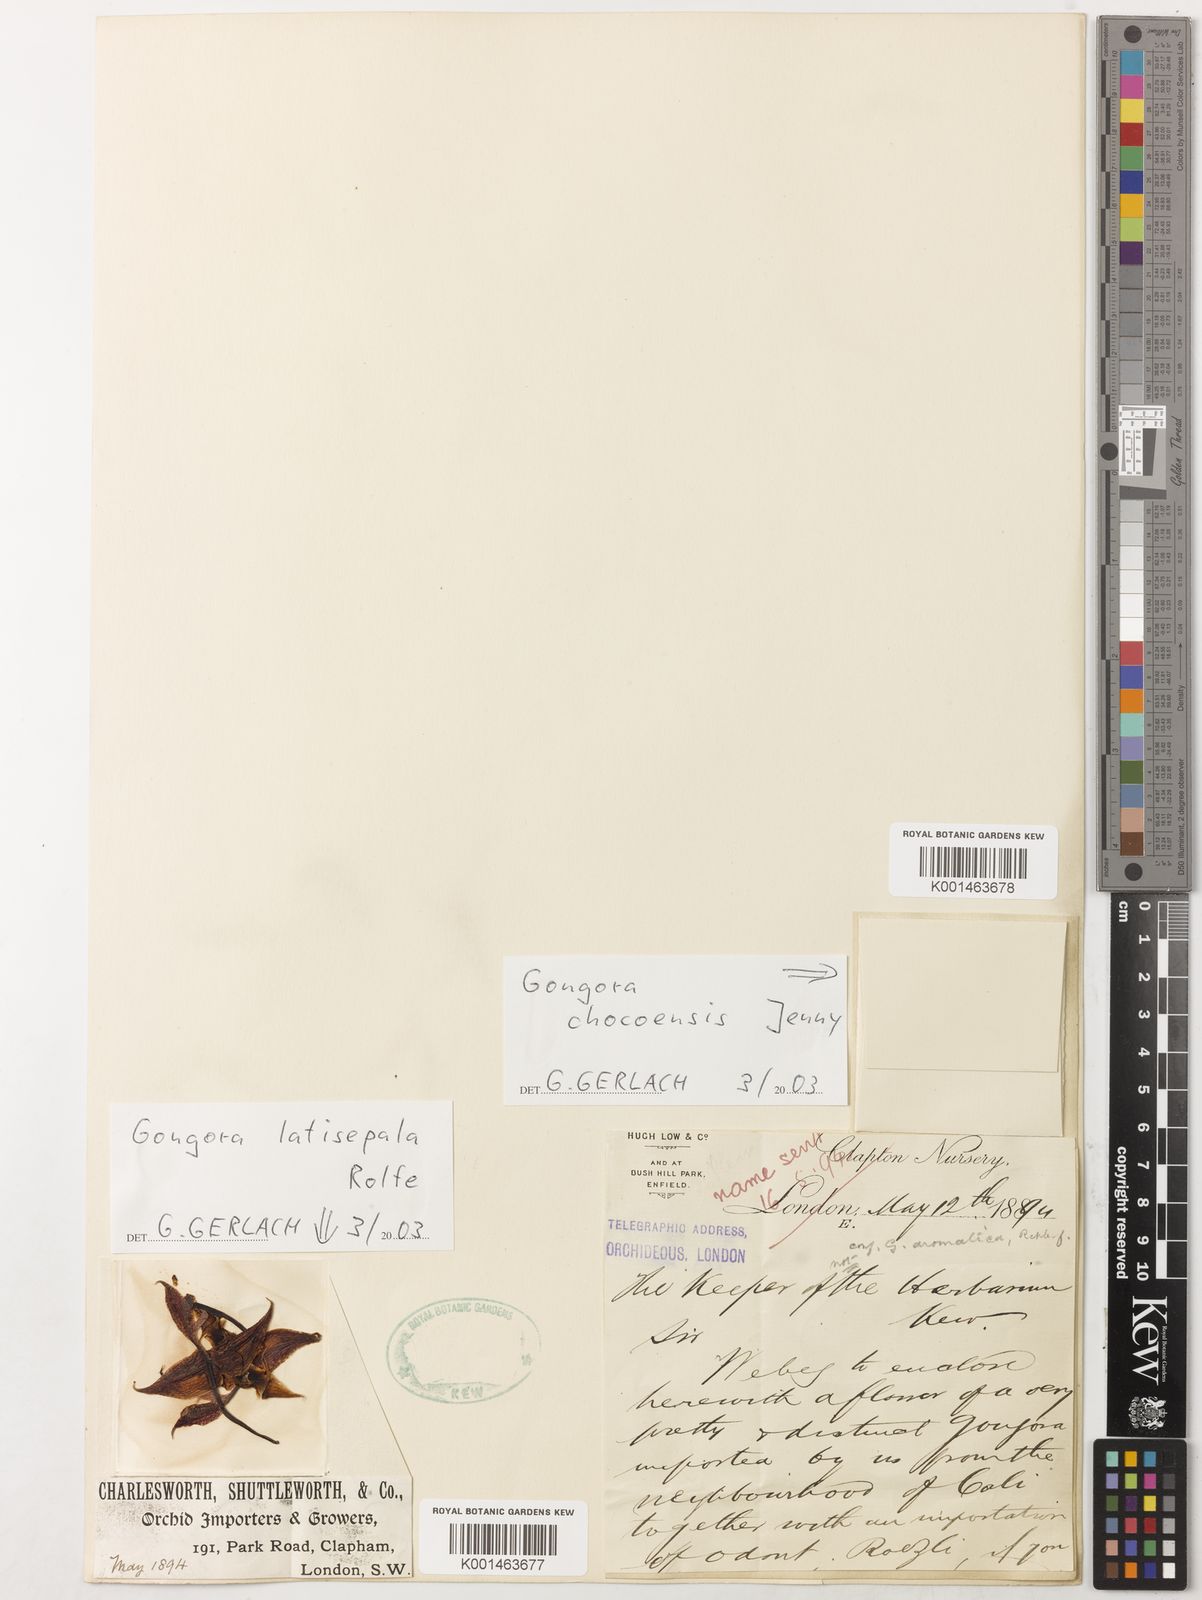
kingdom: Plantae
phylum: Tracheophyta
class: Liliopsida
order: Asparagales
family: Orchidaceae
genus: Gongora
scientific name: Gongora latisepala
